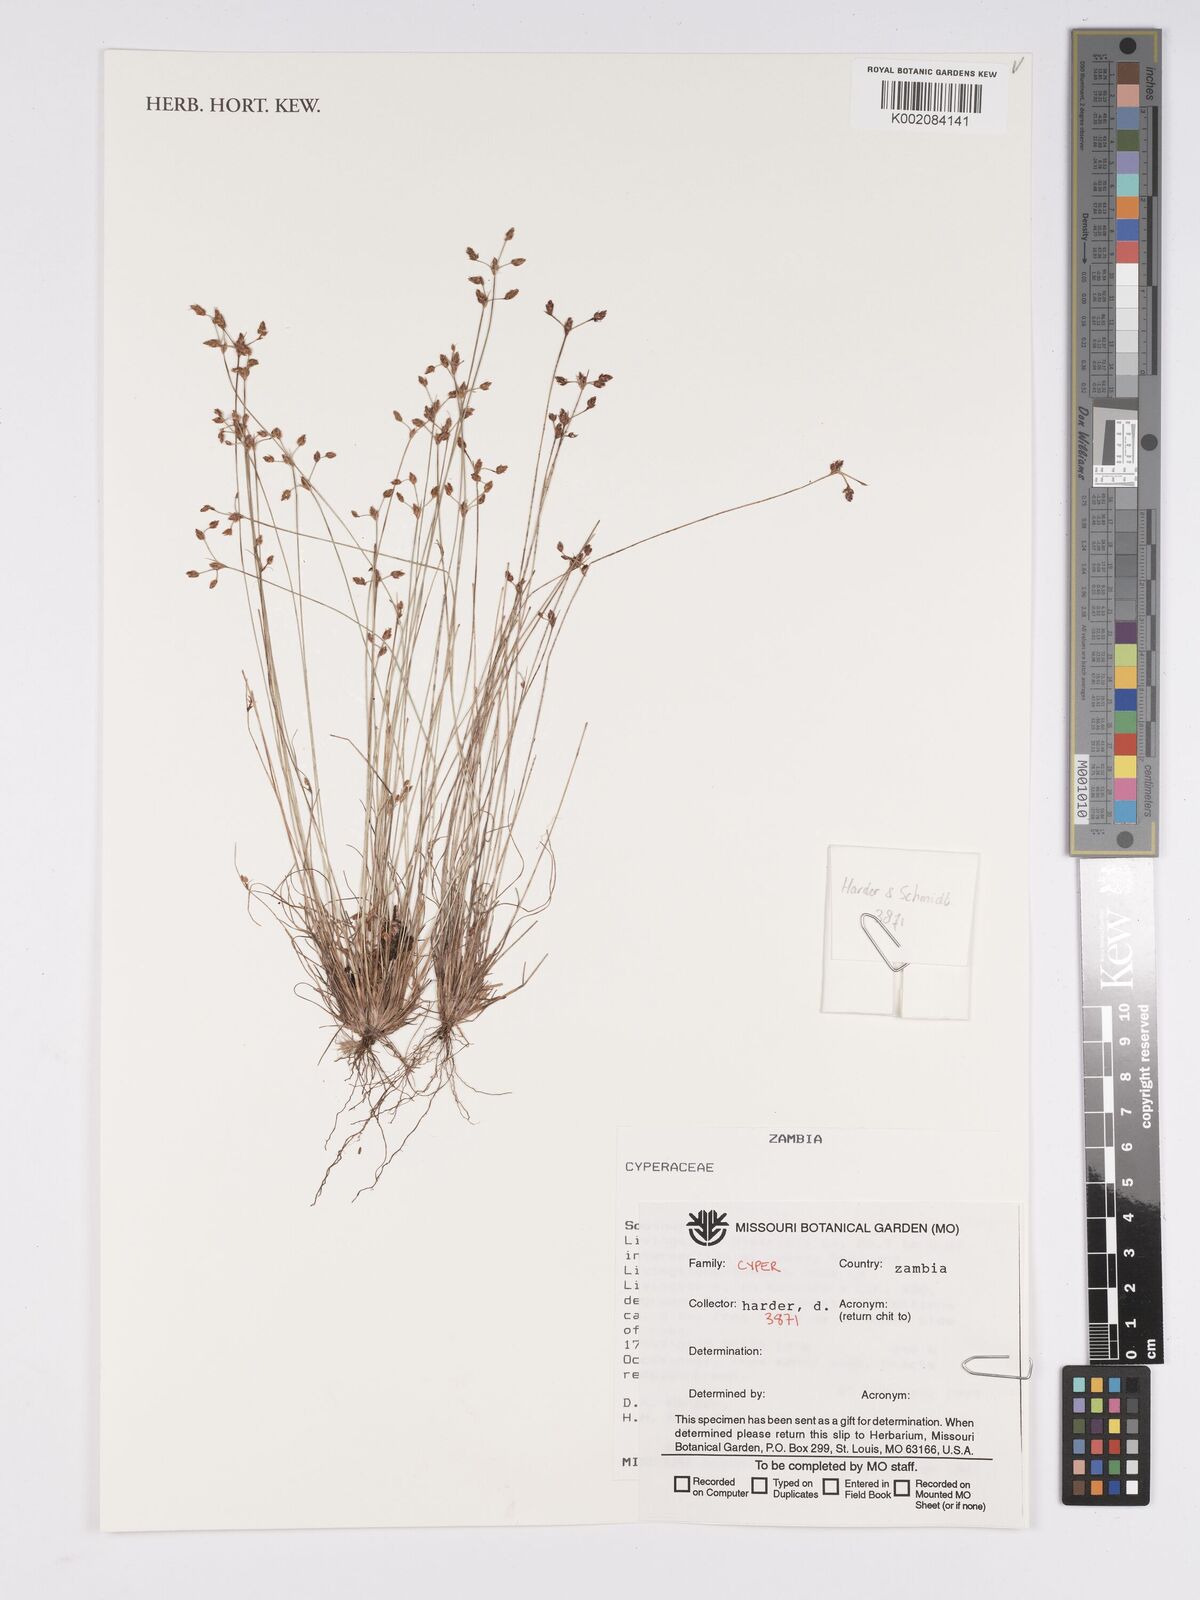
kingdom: Plantae
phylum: Tracheophyta
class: Liliopsida
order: Poales
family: Cyperaceae
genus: Bulbostylis
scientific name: Bulbostylis
